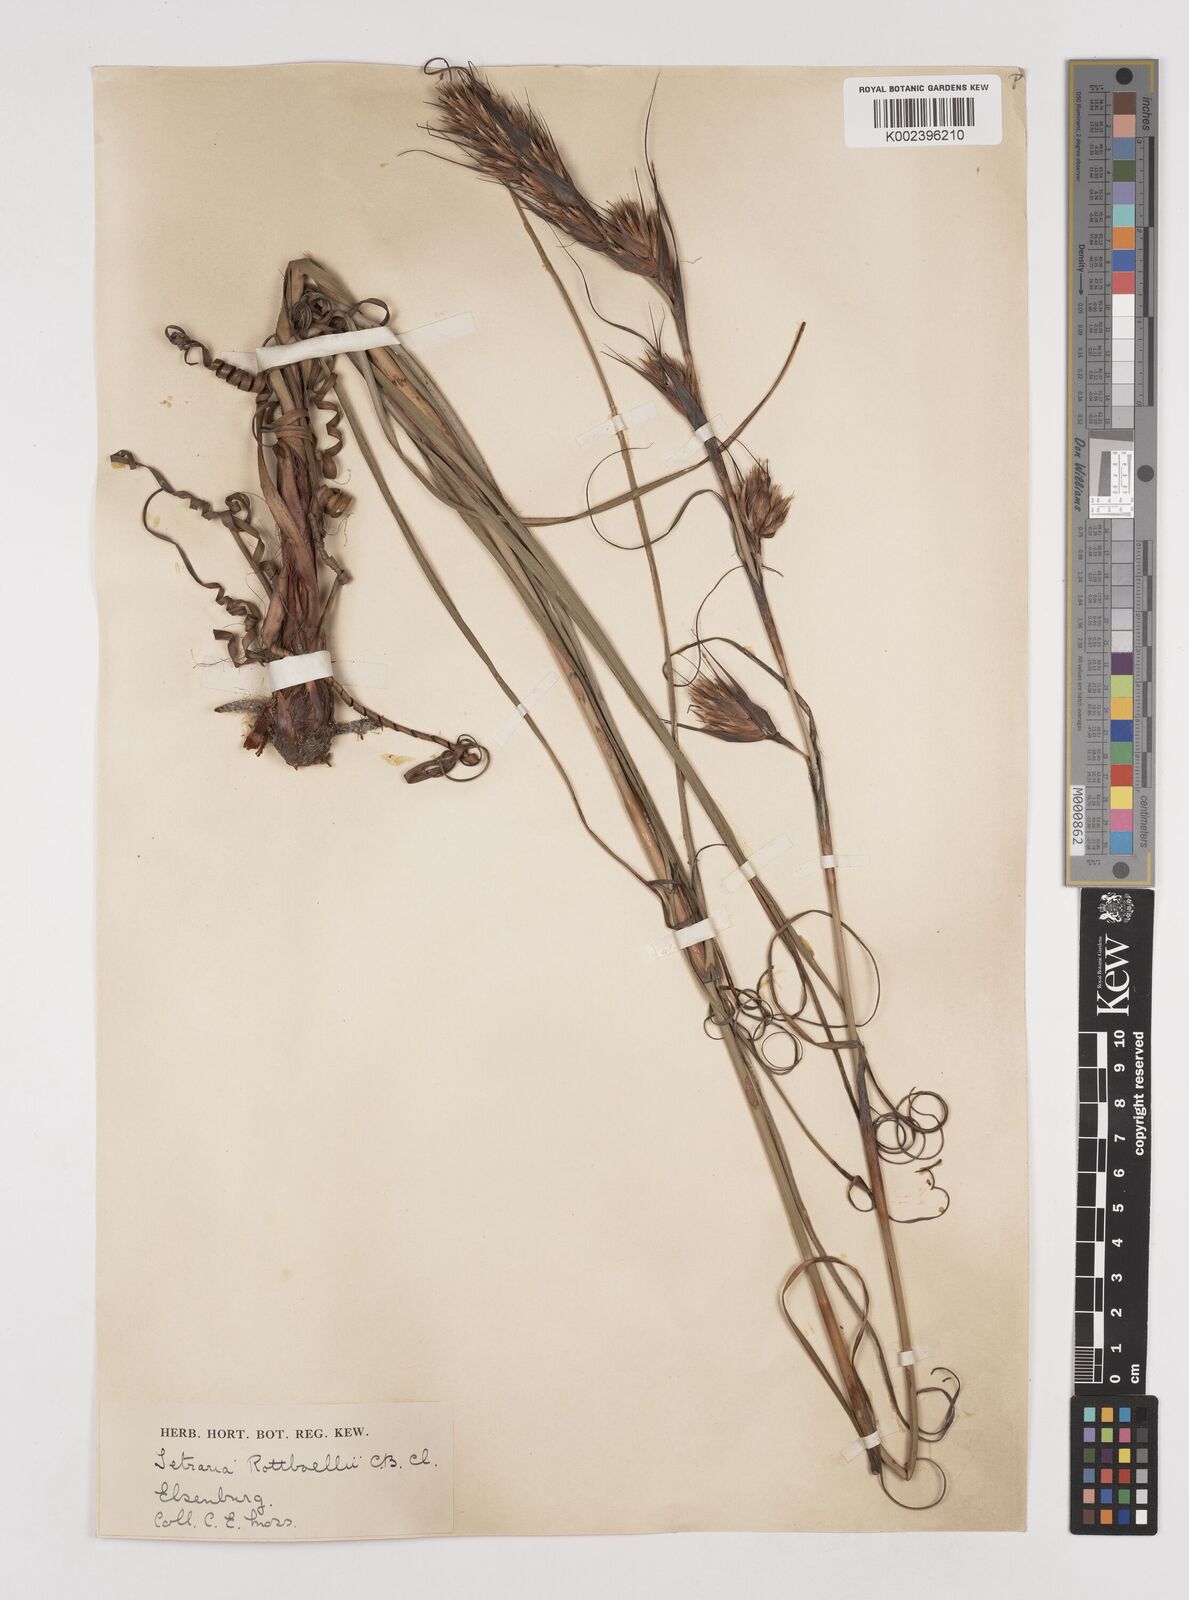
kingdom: Plantae
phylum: Tracheophyta
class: Liliopsida
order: Poales
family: Cyperaceae
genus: Tetraria
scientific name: Tetraria bromoides
